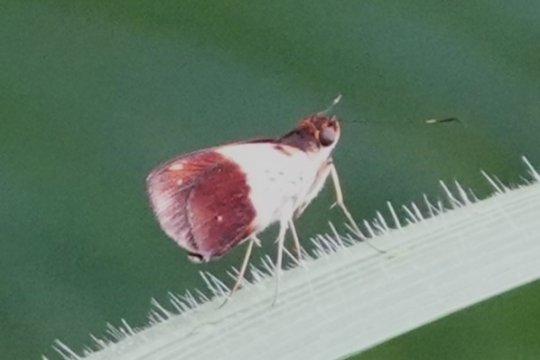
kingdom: Animalia
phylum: Arthropoda
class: Insecta
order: Lepidoptera
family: Hesperiidae
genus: Justinia
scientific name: Justinia norda
